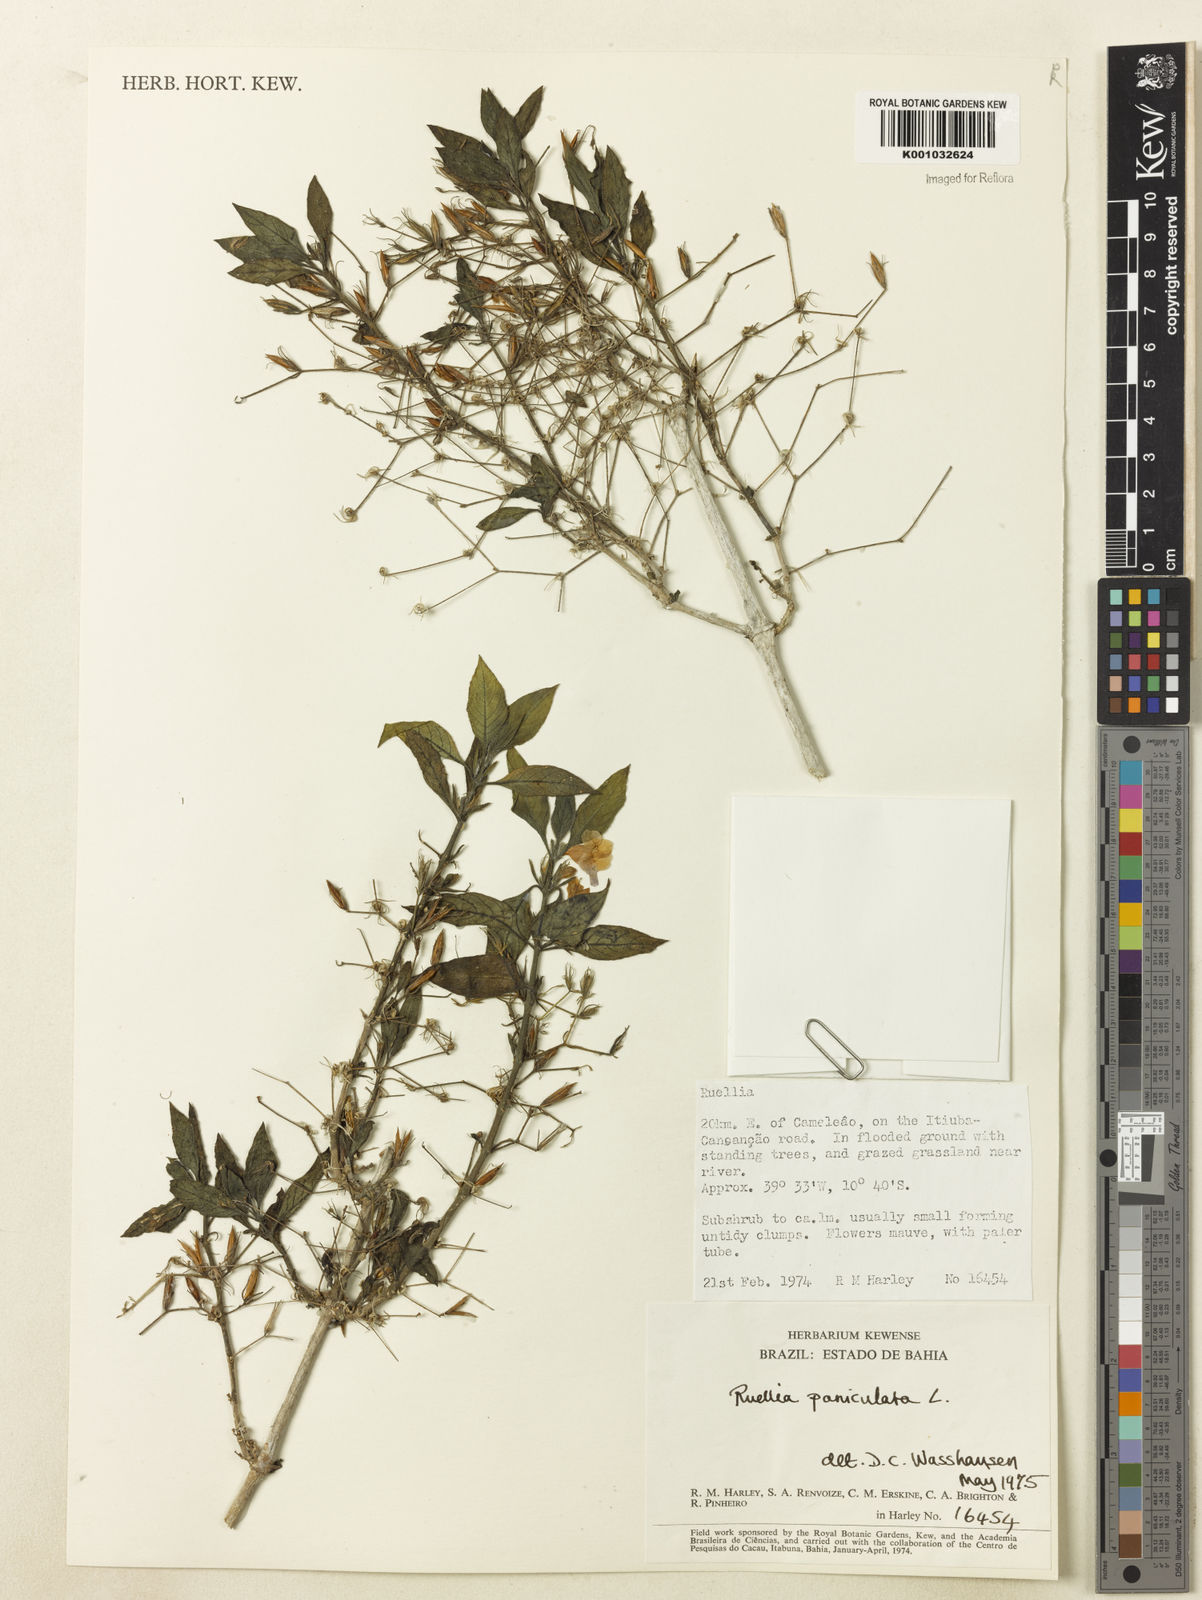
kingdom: Plantae
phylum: Tracheophyta
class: Magnoliopsida
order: Lamiales
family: Acanthaceae
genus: Ruellia
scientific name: Ruellia paniculata
